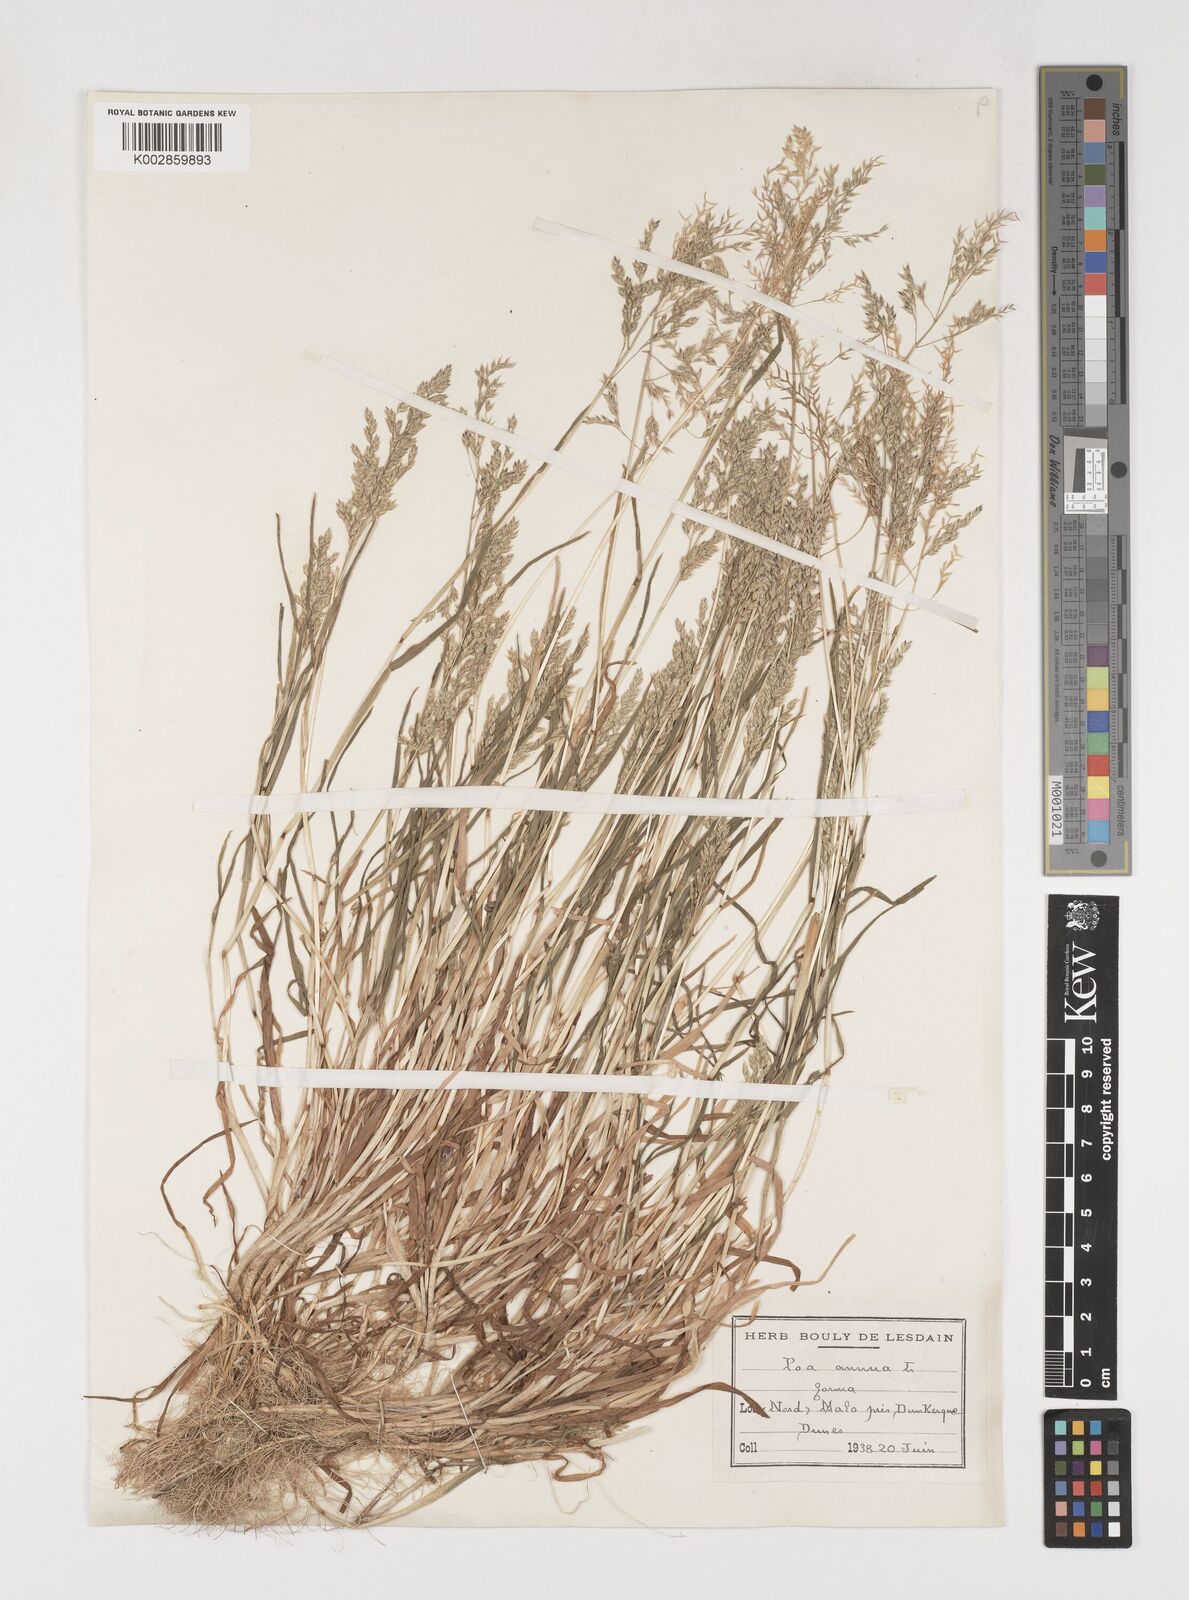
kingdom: Plantae
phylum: Tracheophyta
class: Liliopsida
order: Poales
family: Poaceae
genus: Poa
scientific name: Poa annua
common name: Annual bluegrass
